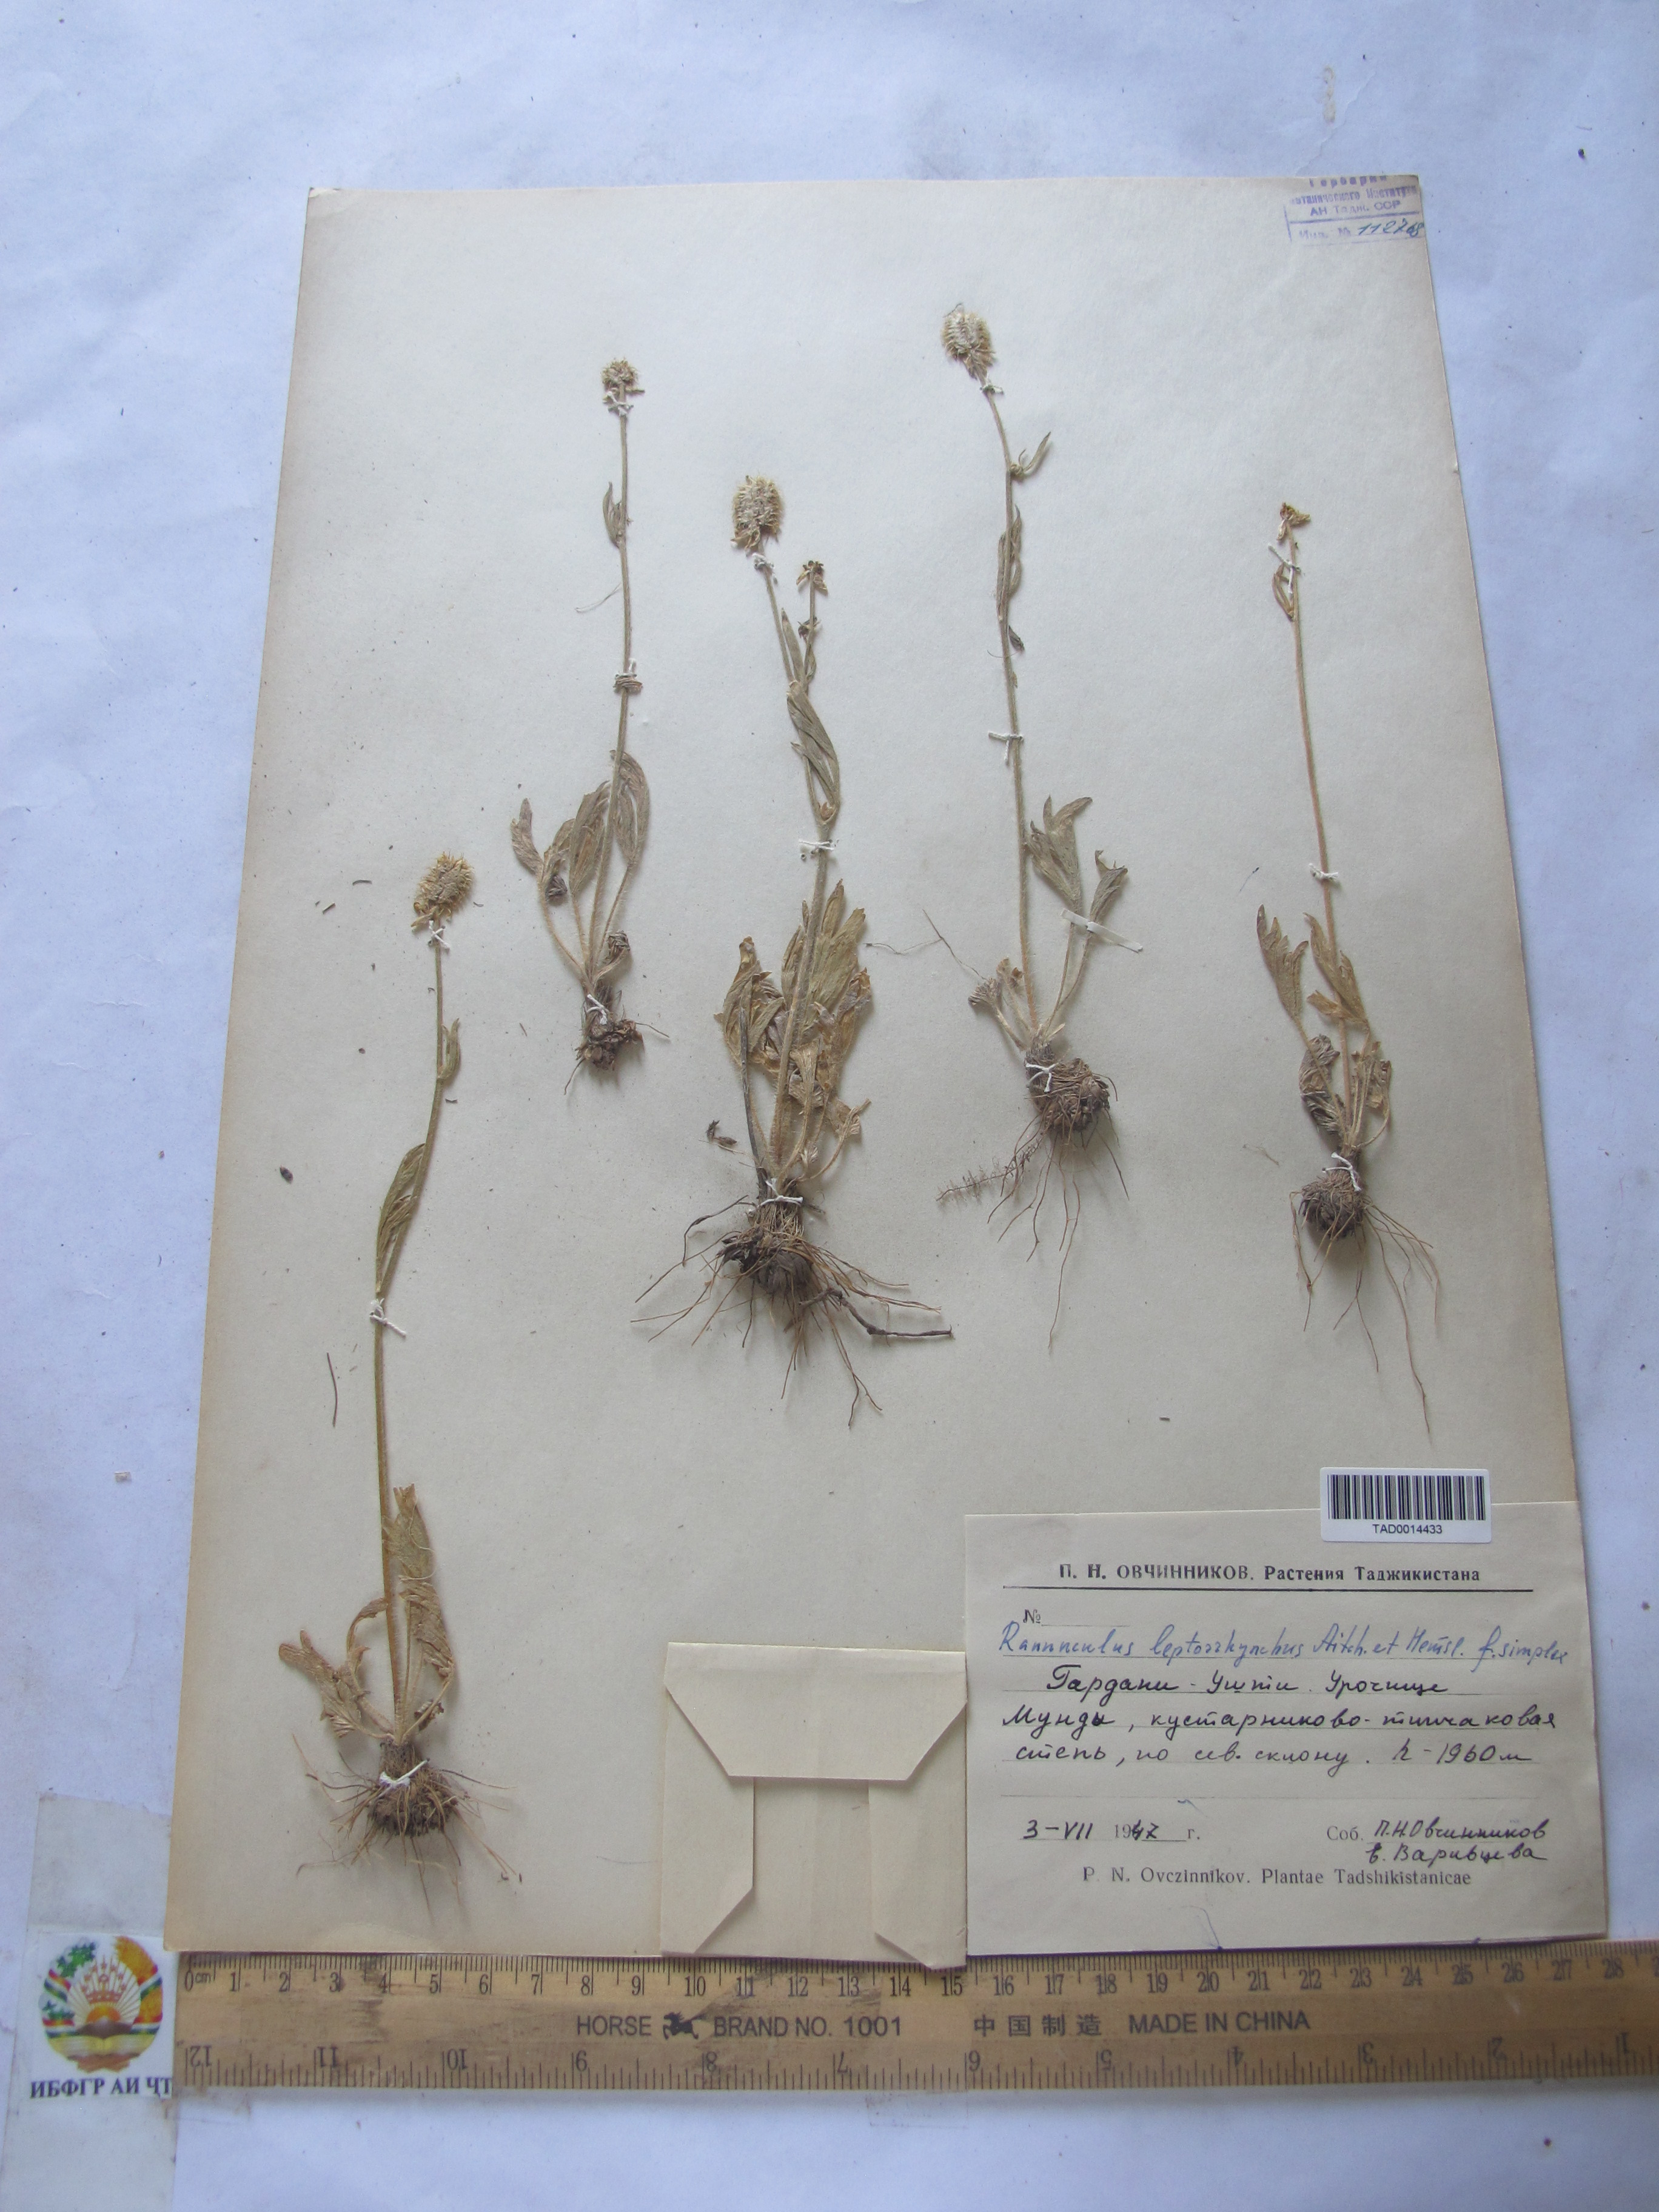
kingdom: Plantae
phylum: Tracheophyta
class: Magnoliopsida
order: Ranunculales
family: Ranunculaceae
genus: Ranunculus
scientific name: Ranunculus leptorrhynchus
